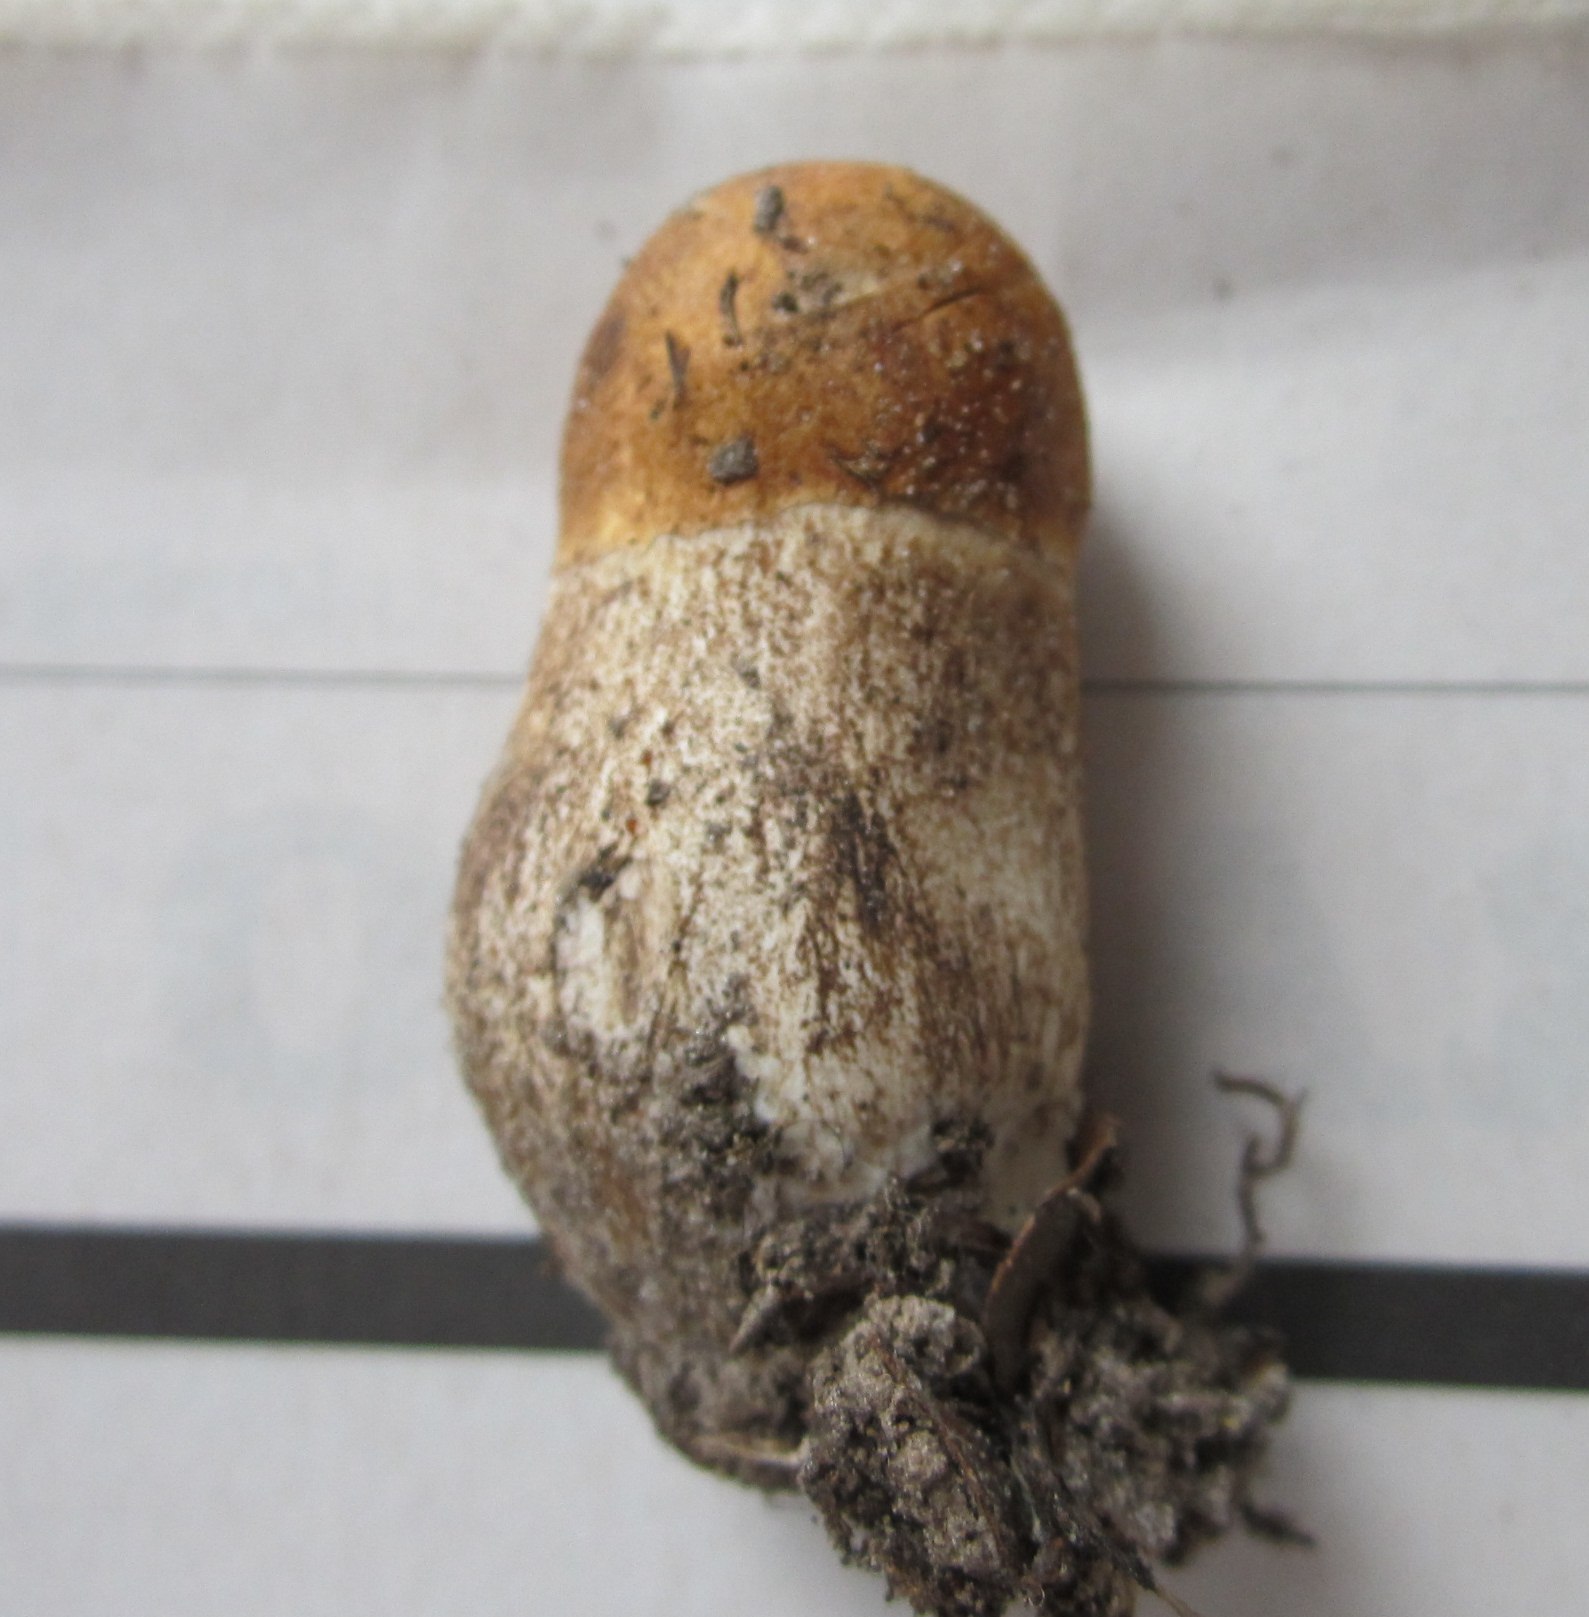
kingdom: Fungi
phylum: Basidiomycota
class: Agaricomycetes
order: Boletales
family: Boletaceae
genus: Leccinum
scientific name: Leccinum aurantiacum
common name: rustrød skælrørhat
